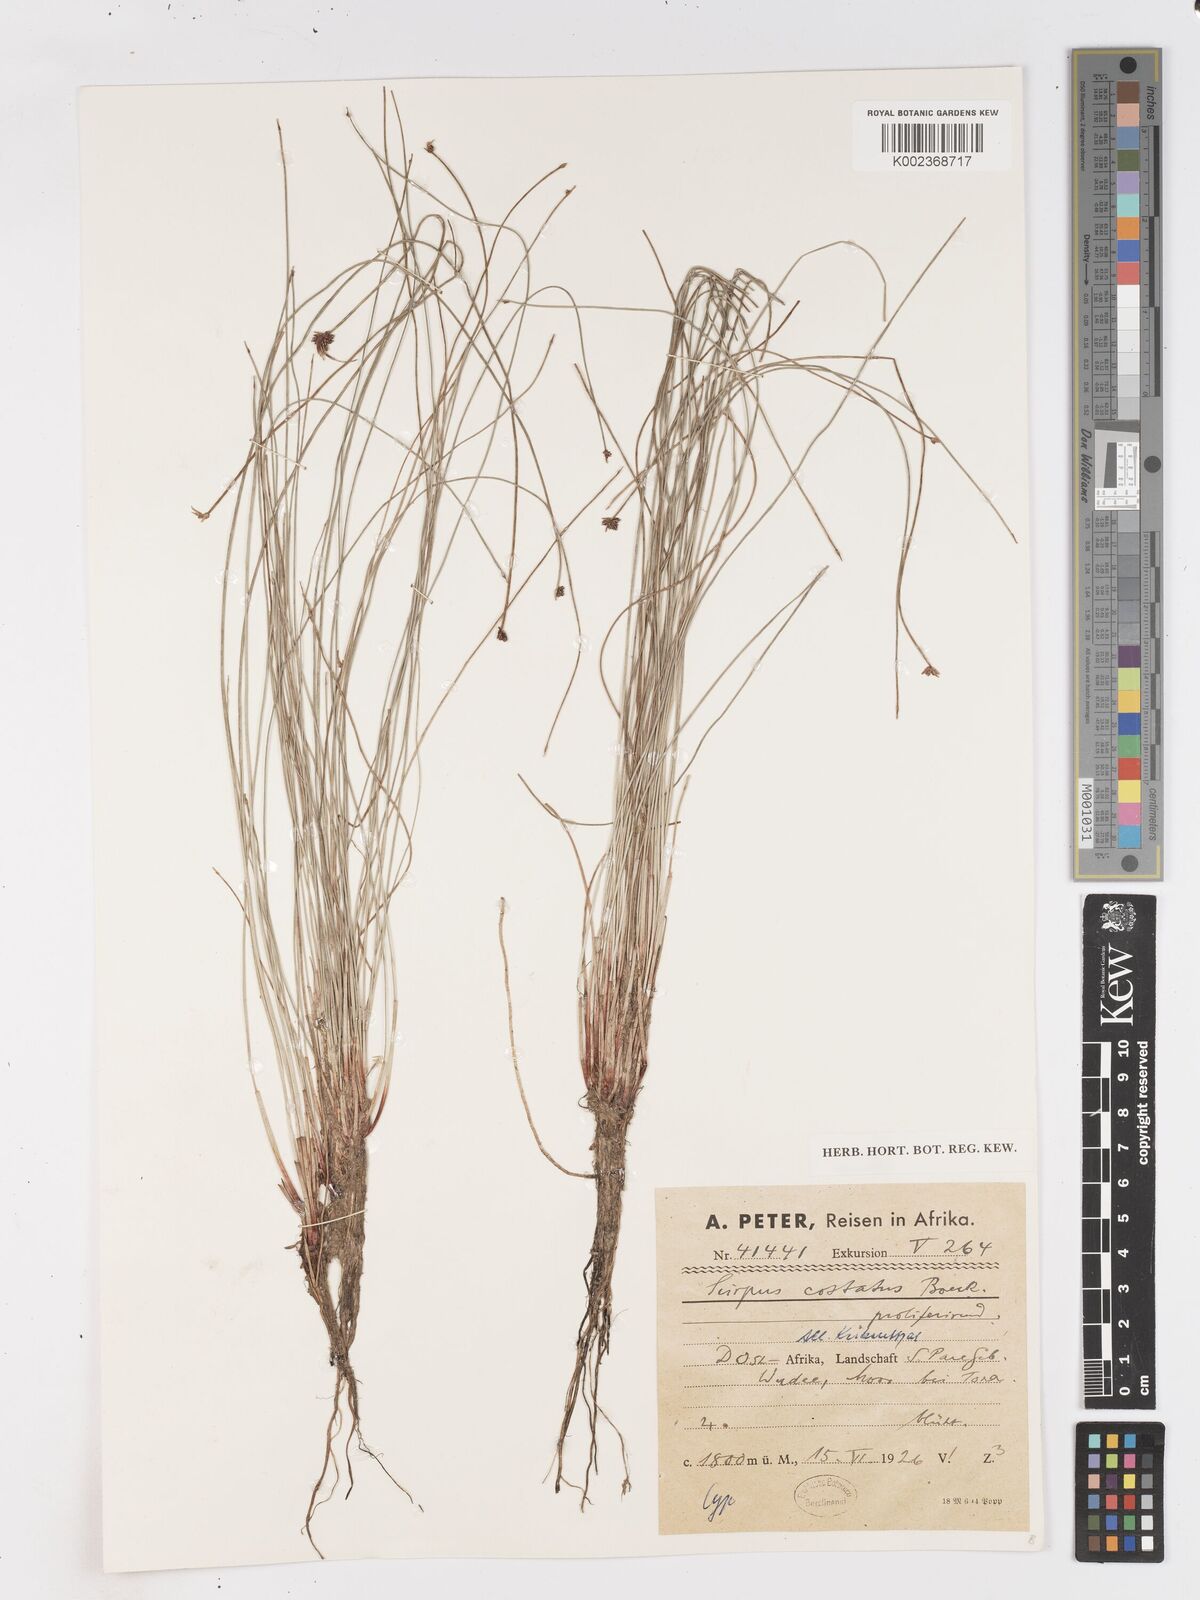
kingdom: Plantae
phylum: Tracheophyta
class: Liliopsida
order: Poales
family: Cyperaceae
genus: Isolepis
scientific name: Isolepis costata
